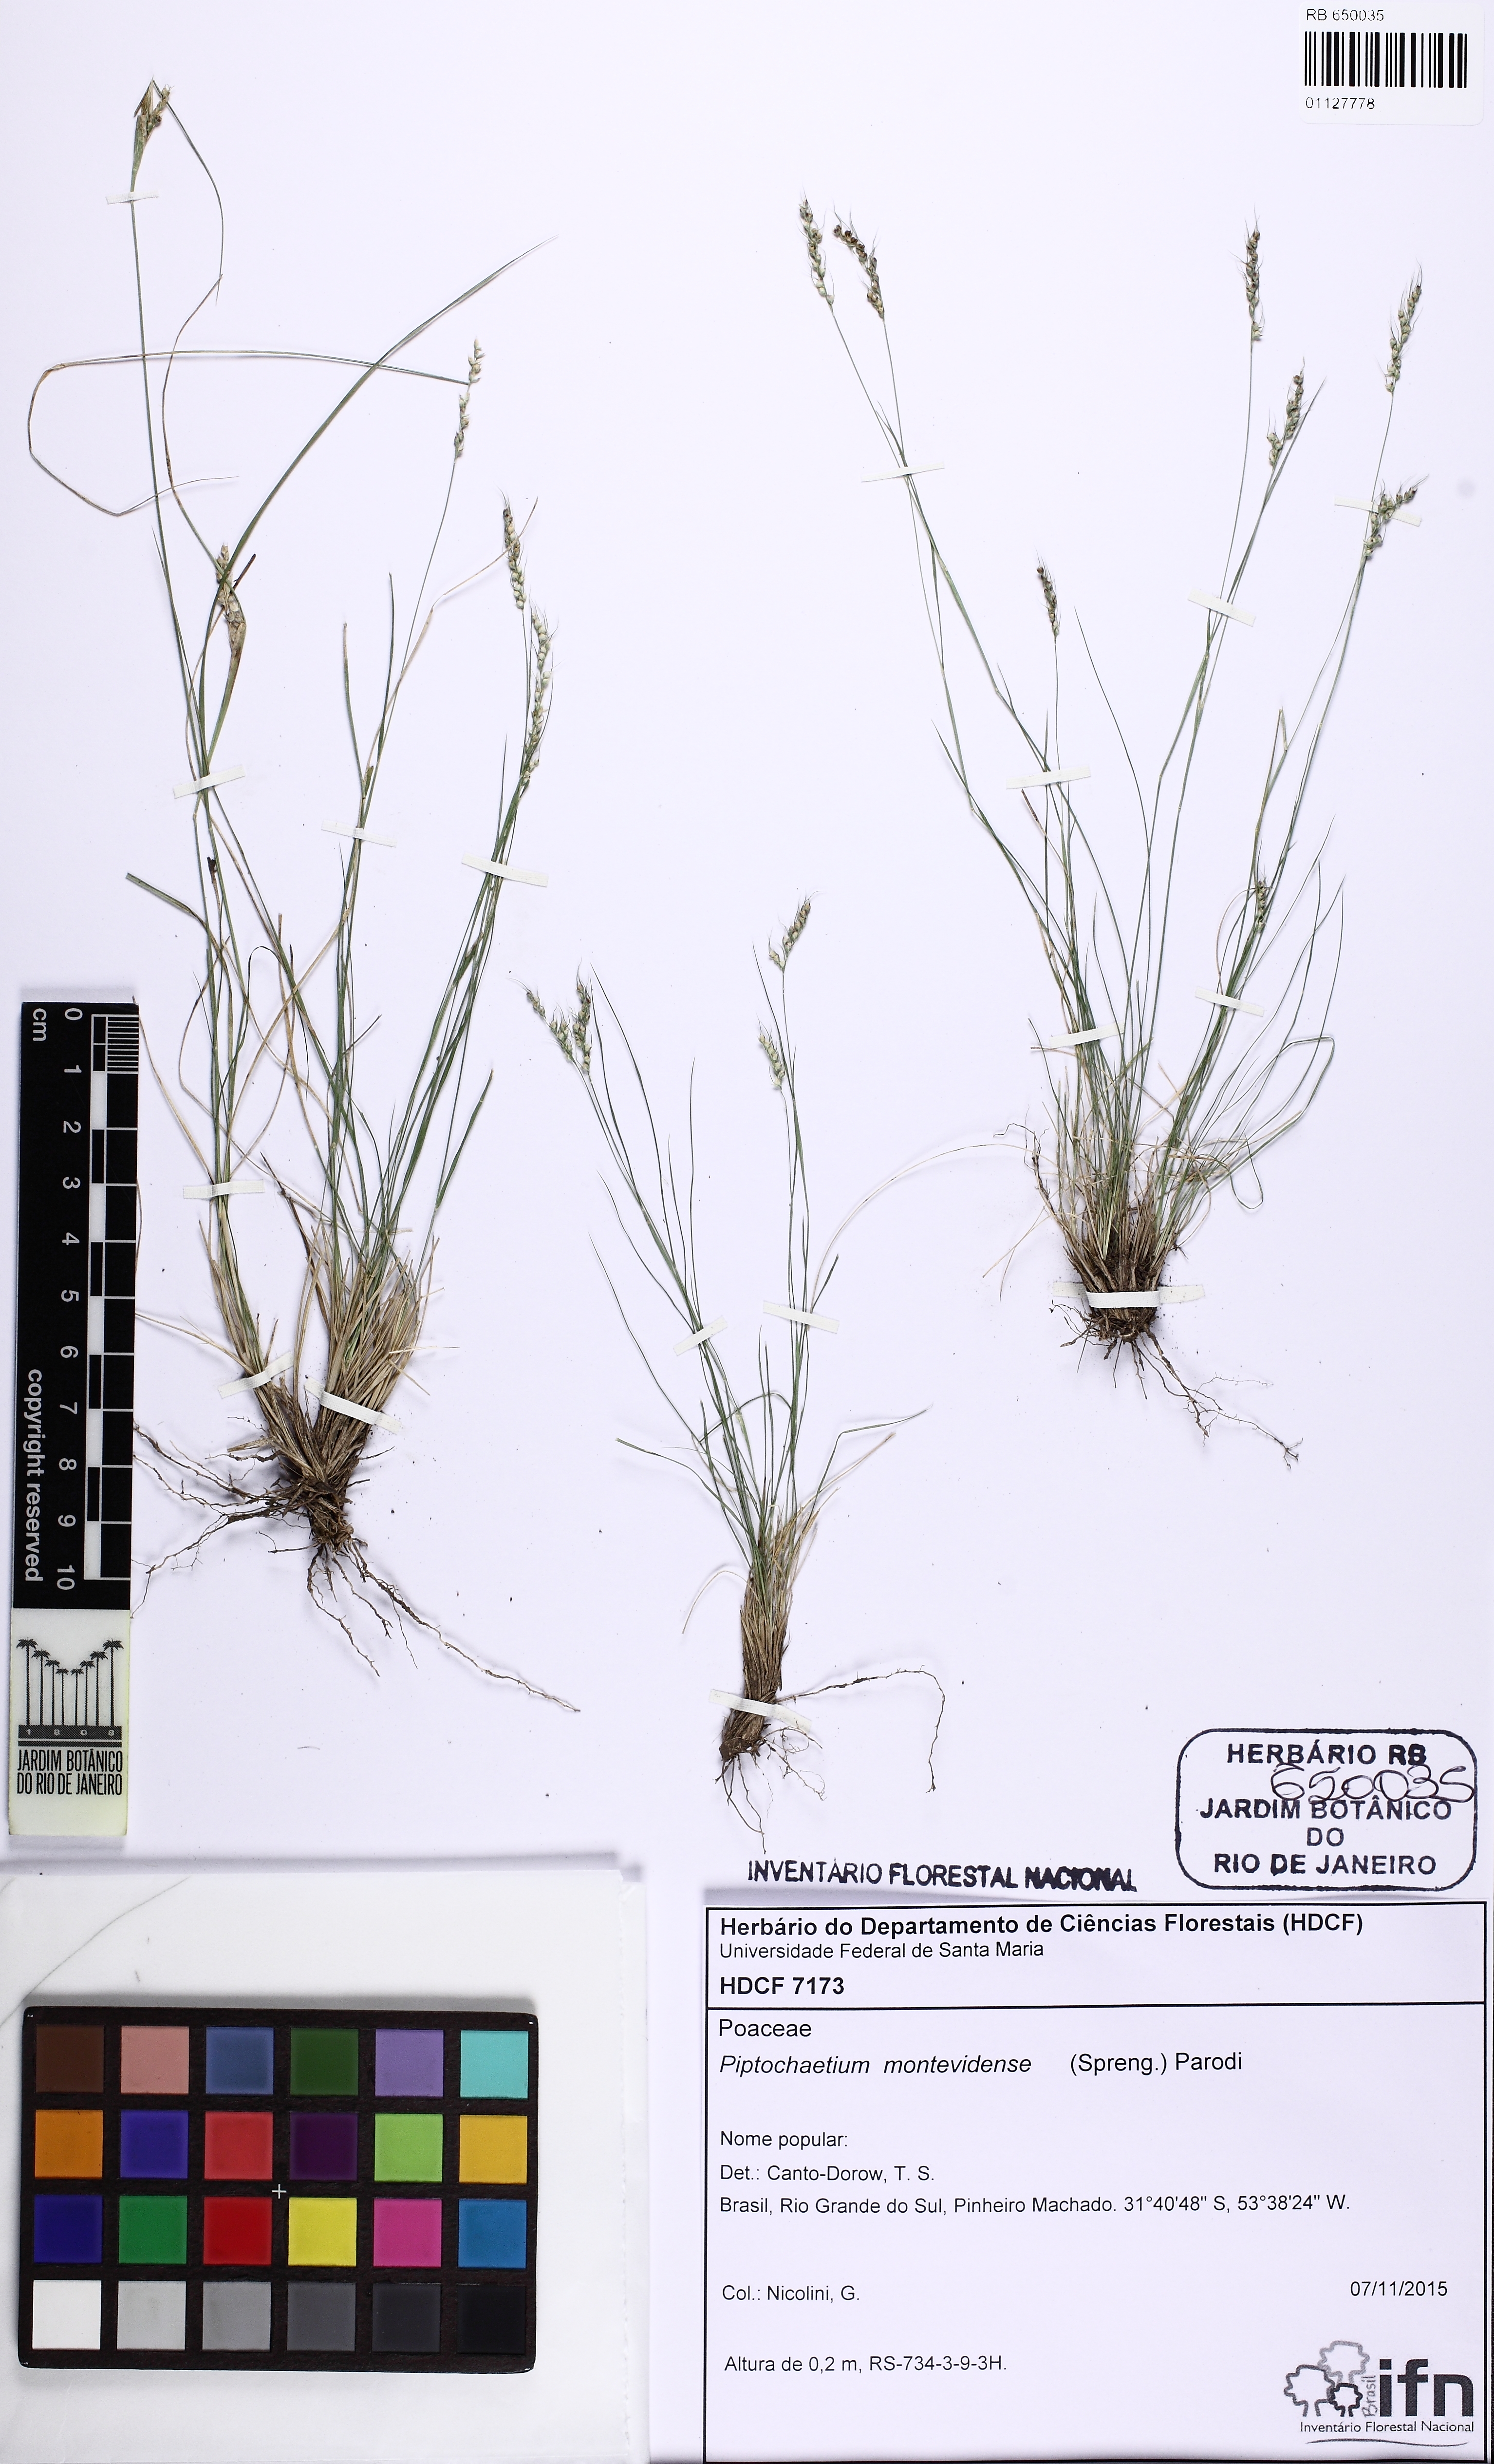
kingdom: Plantae
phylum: Tracheophyta
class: Liliopsida
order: Poales
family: Poaceae
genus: Piptochaetium
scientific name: Piptochaetium montevidense
